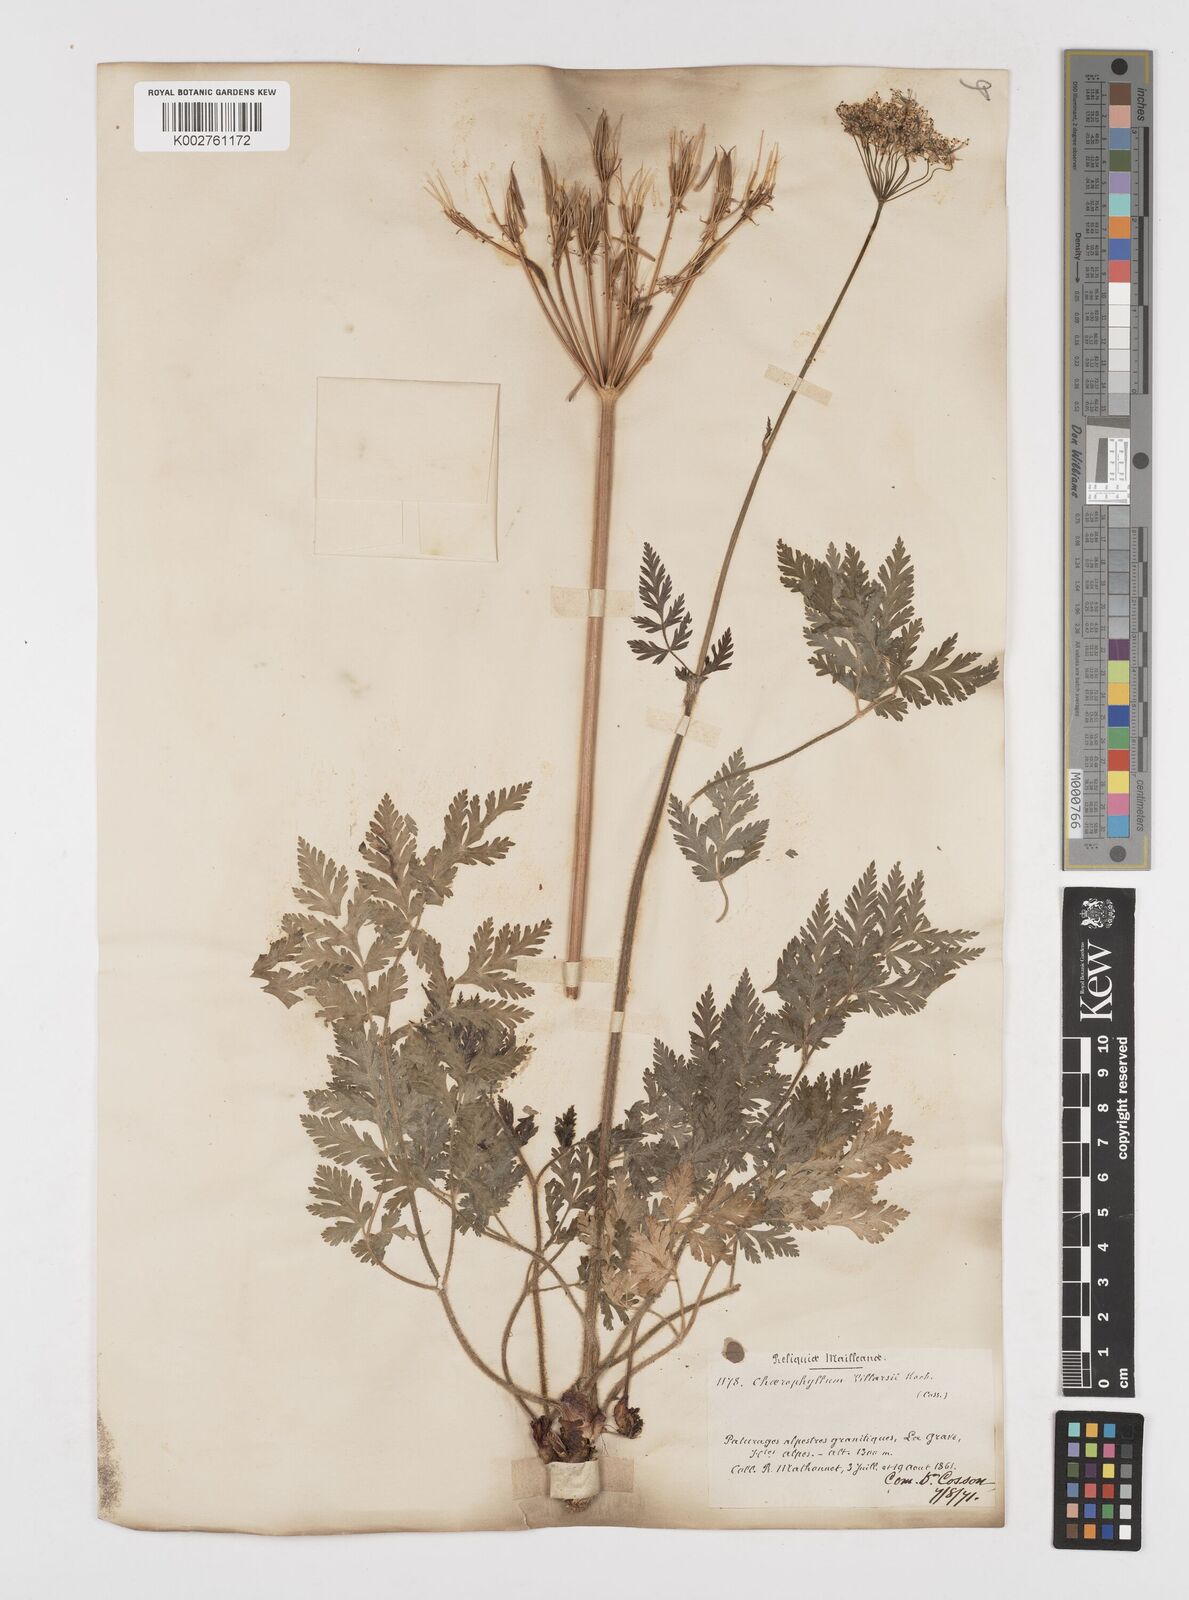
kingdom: Plantae
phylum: Tracheophyta
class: Magnoliopsida
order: Apiales
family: Apiaceae
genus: Chaerophyllum
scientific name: Chaerophyllum hirsutum
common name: Hairy chervil
